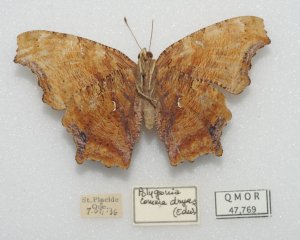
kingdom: Animalia
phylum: Arthropoda
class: Insecta
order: Lepidoptera
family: Nymphalidae
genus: Polygonia
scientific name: Polygonia comma
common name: Eastern Comma
